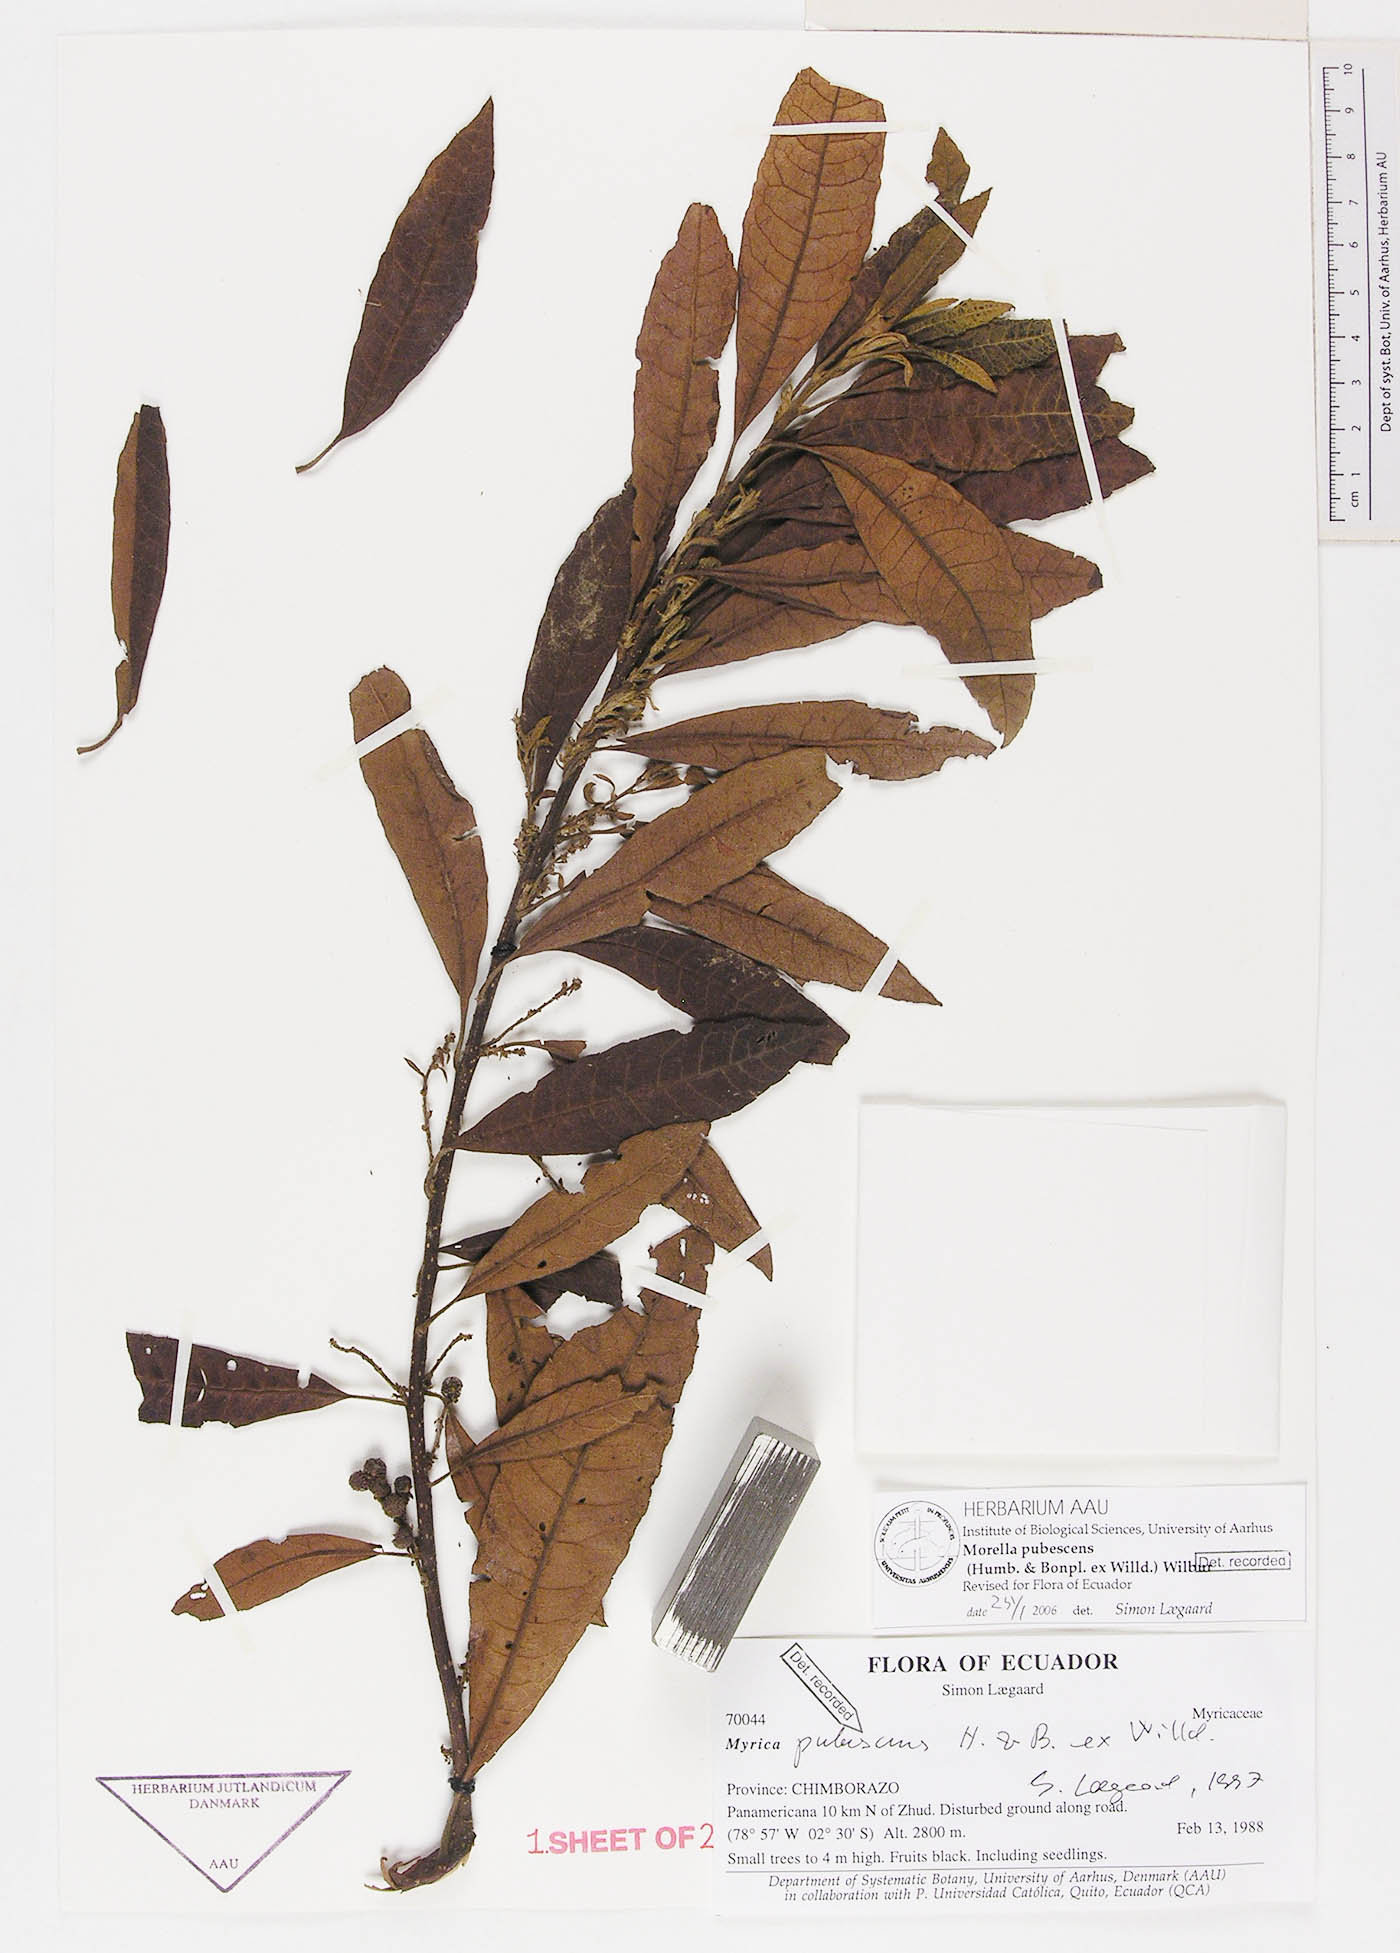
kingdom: Plantae
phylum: Tracheophyta
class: Magnoliopsida
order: Fagales
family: Myricaceae
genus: Morella
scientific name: Morella pubescens
